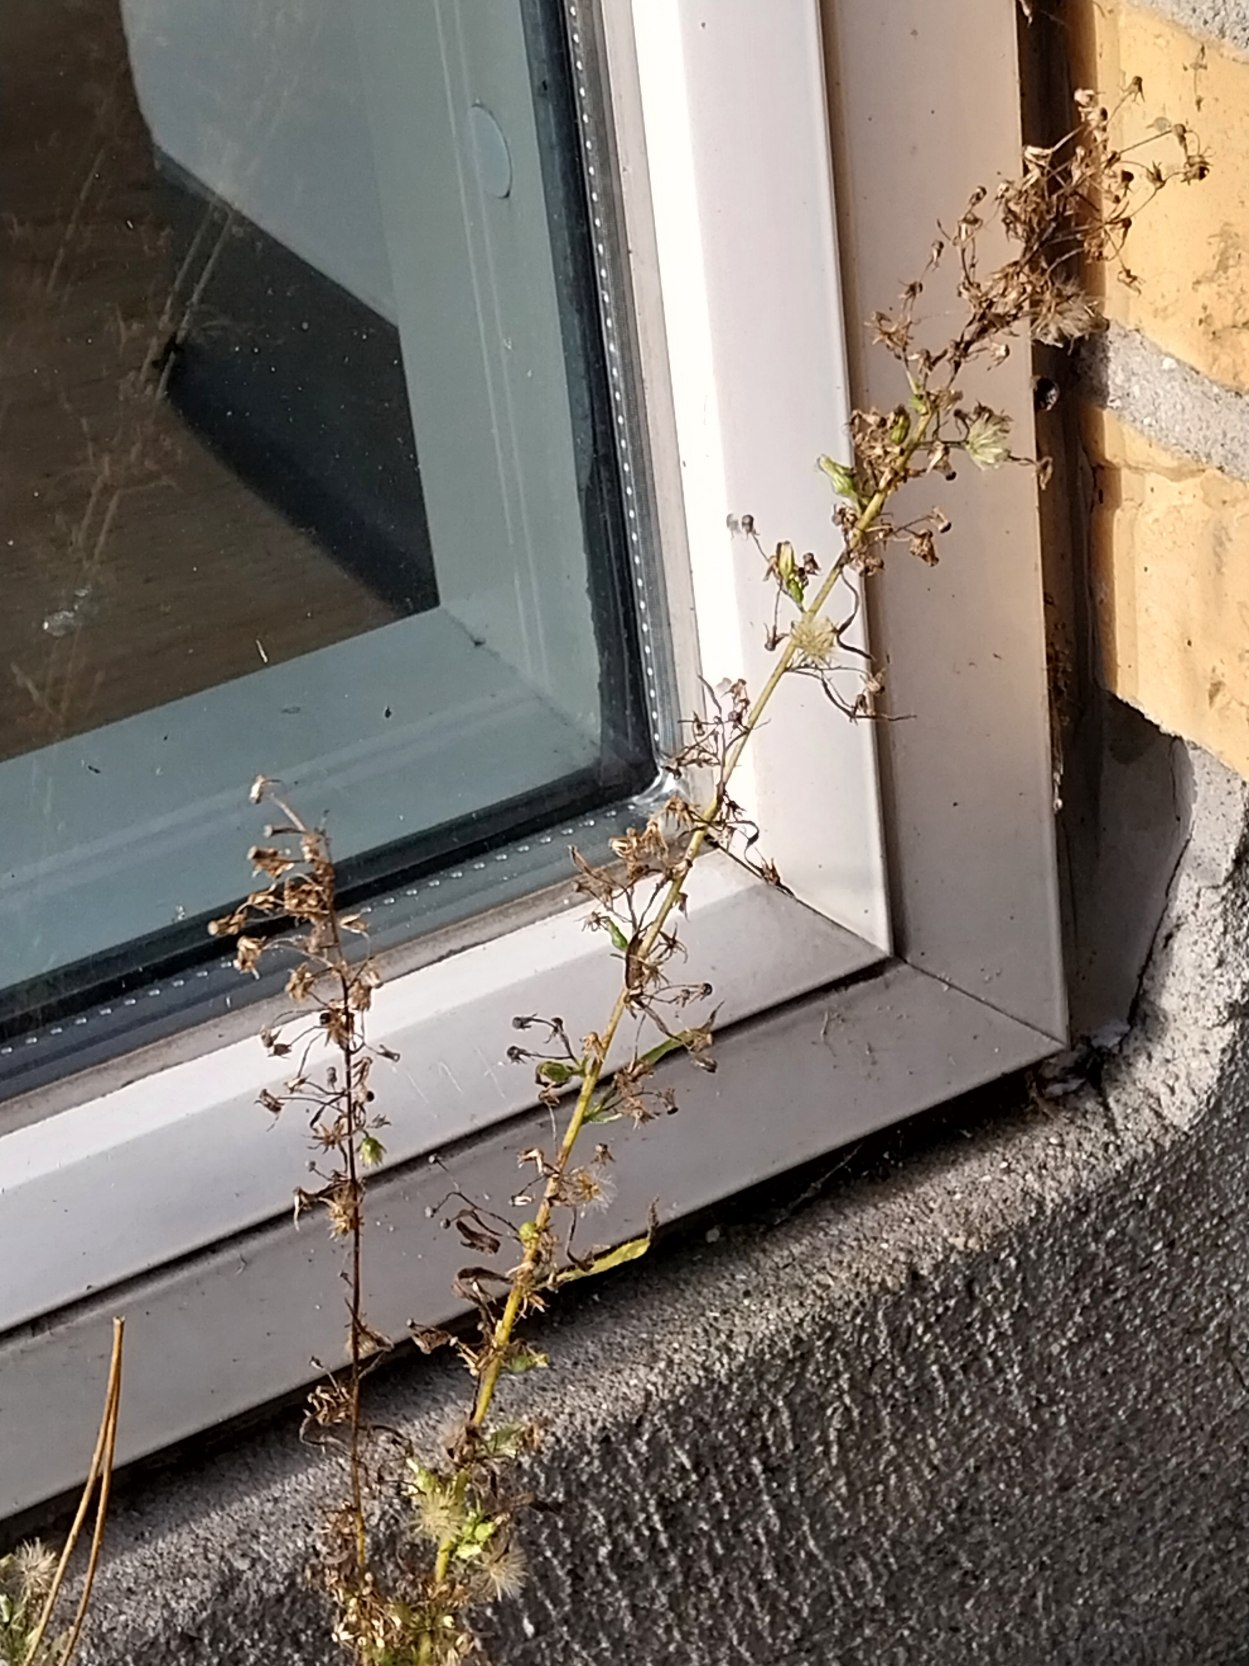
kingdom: Plantae
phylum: Tracheophyta
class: Magnoliopsida
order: Asterales
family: Asteraceae
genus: Erigeron
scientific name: Erigeron canadensis
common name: Kanadisk bakkestjerne
